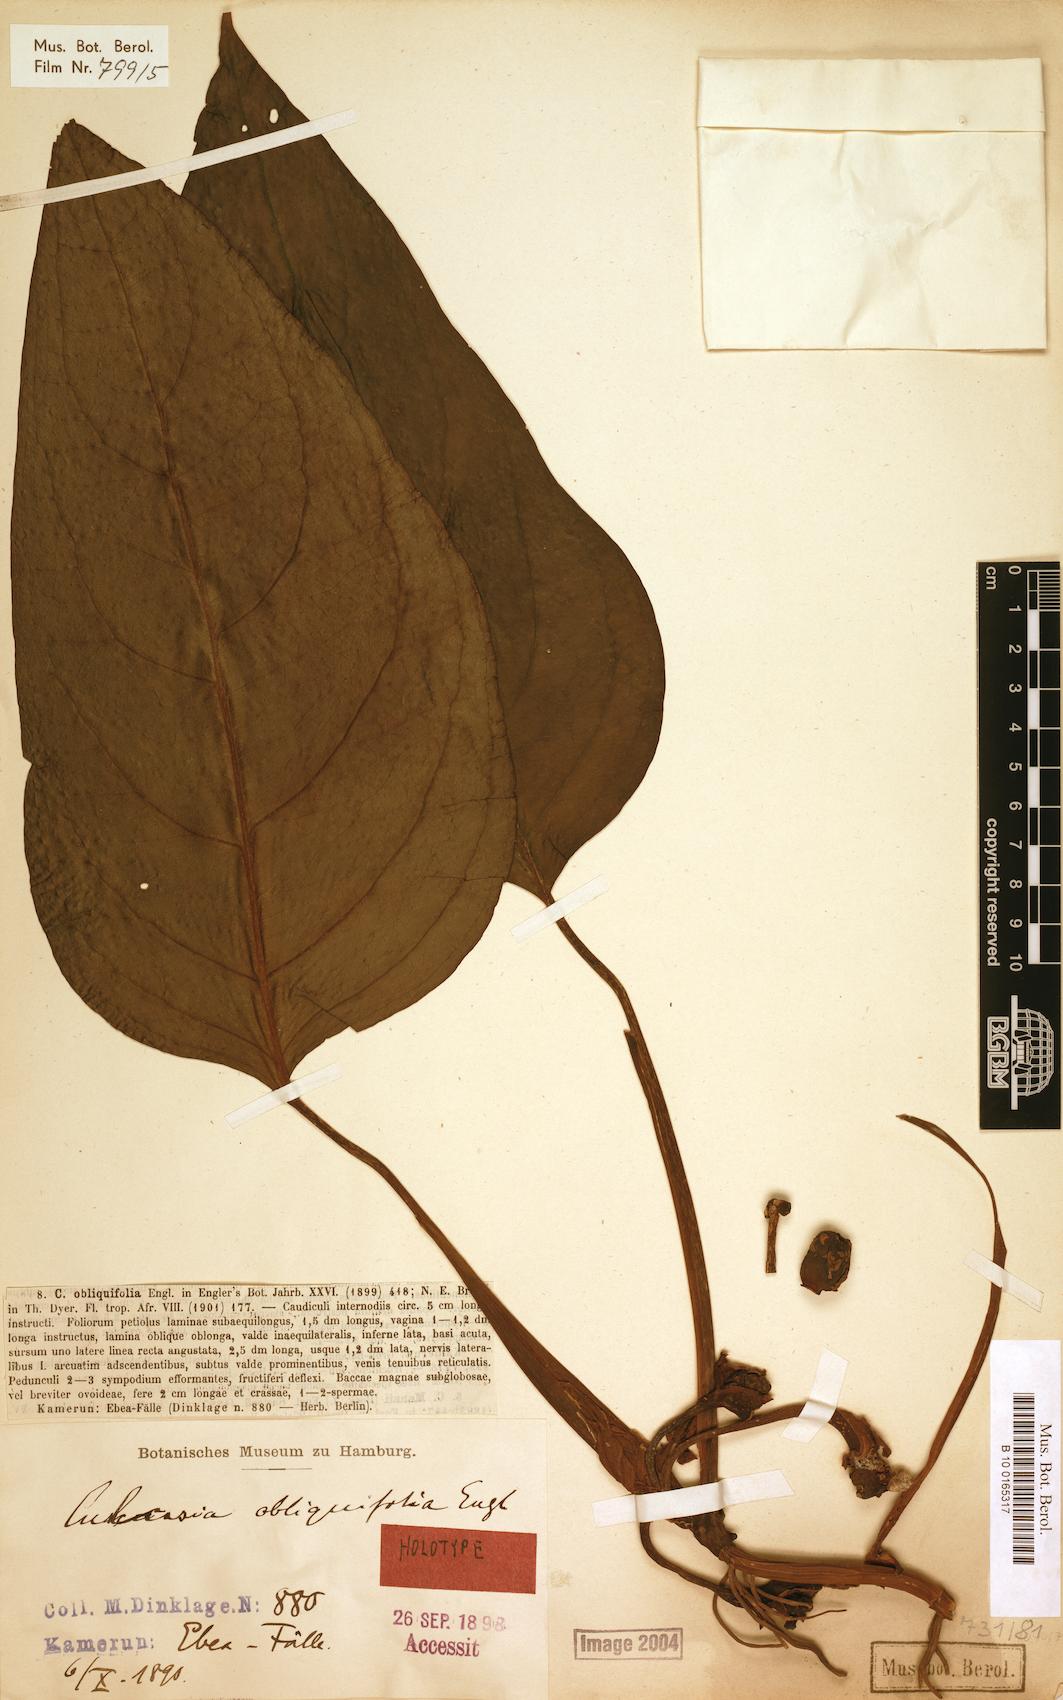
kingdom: Plantae
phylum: Tracheophyta
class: Liliopsida
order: Alismatales
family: Araceae
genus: Culcasia
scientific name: Culcasia obliquifolia
